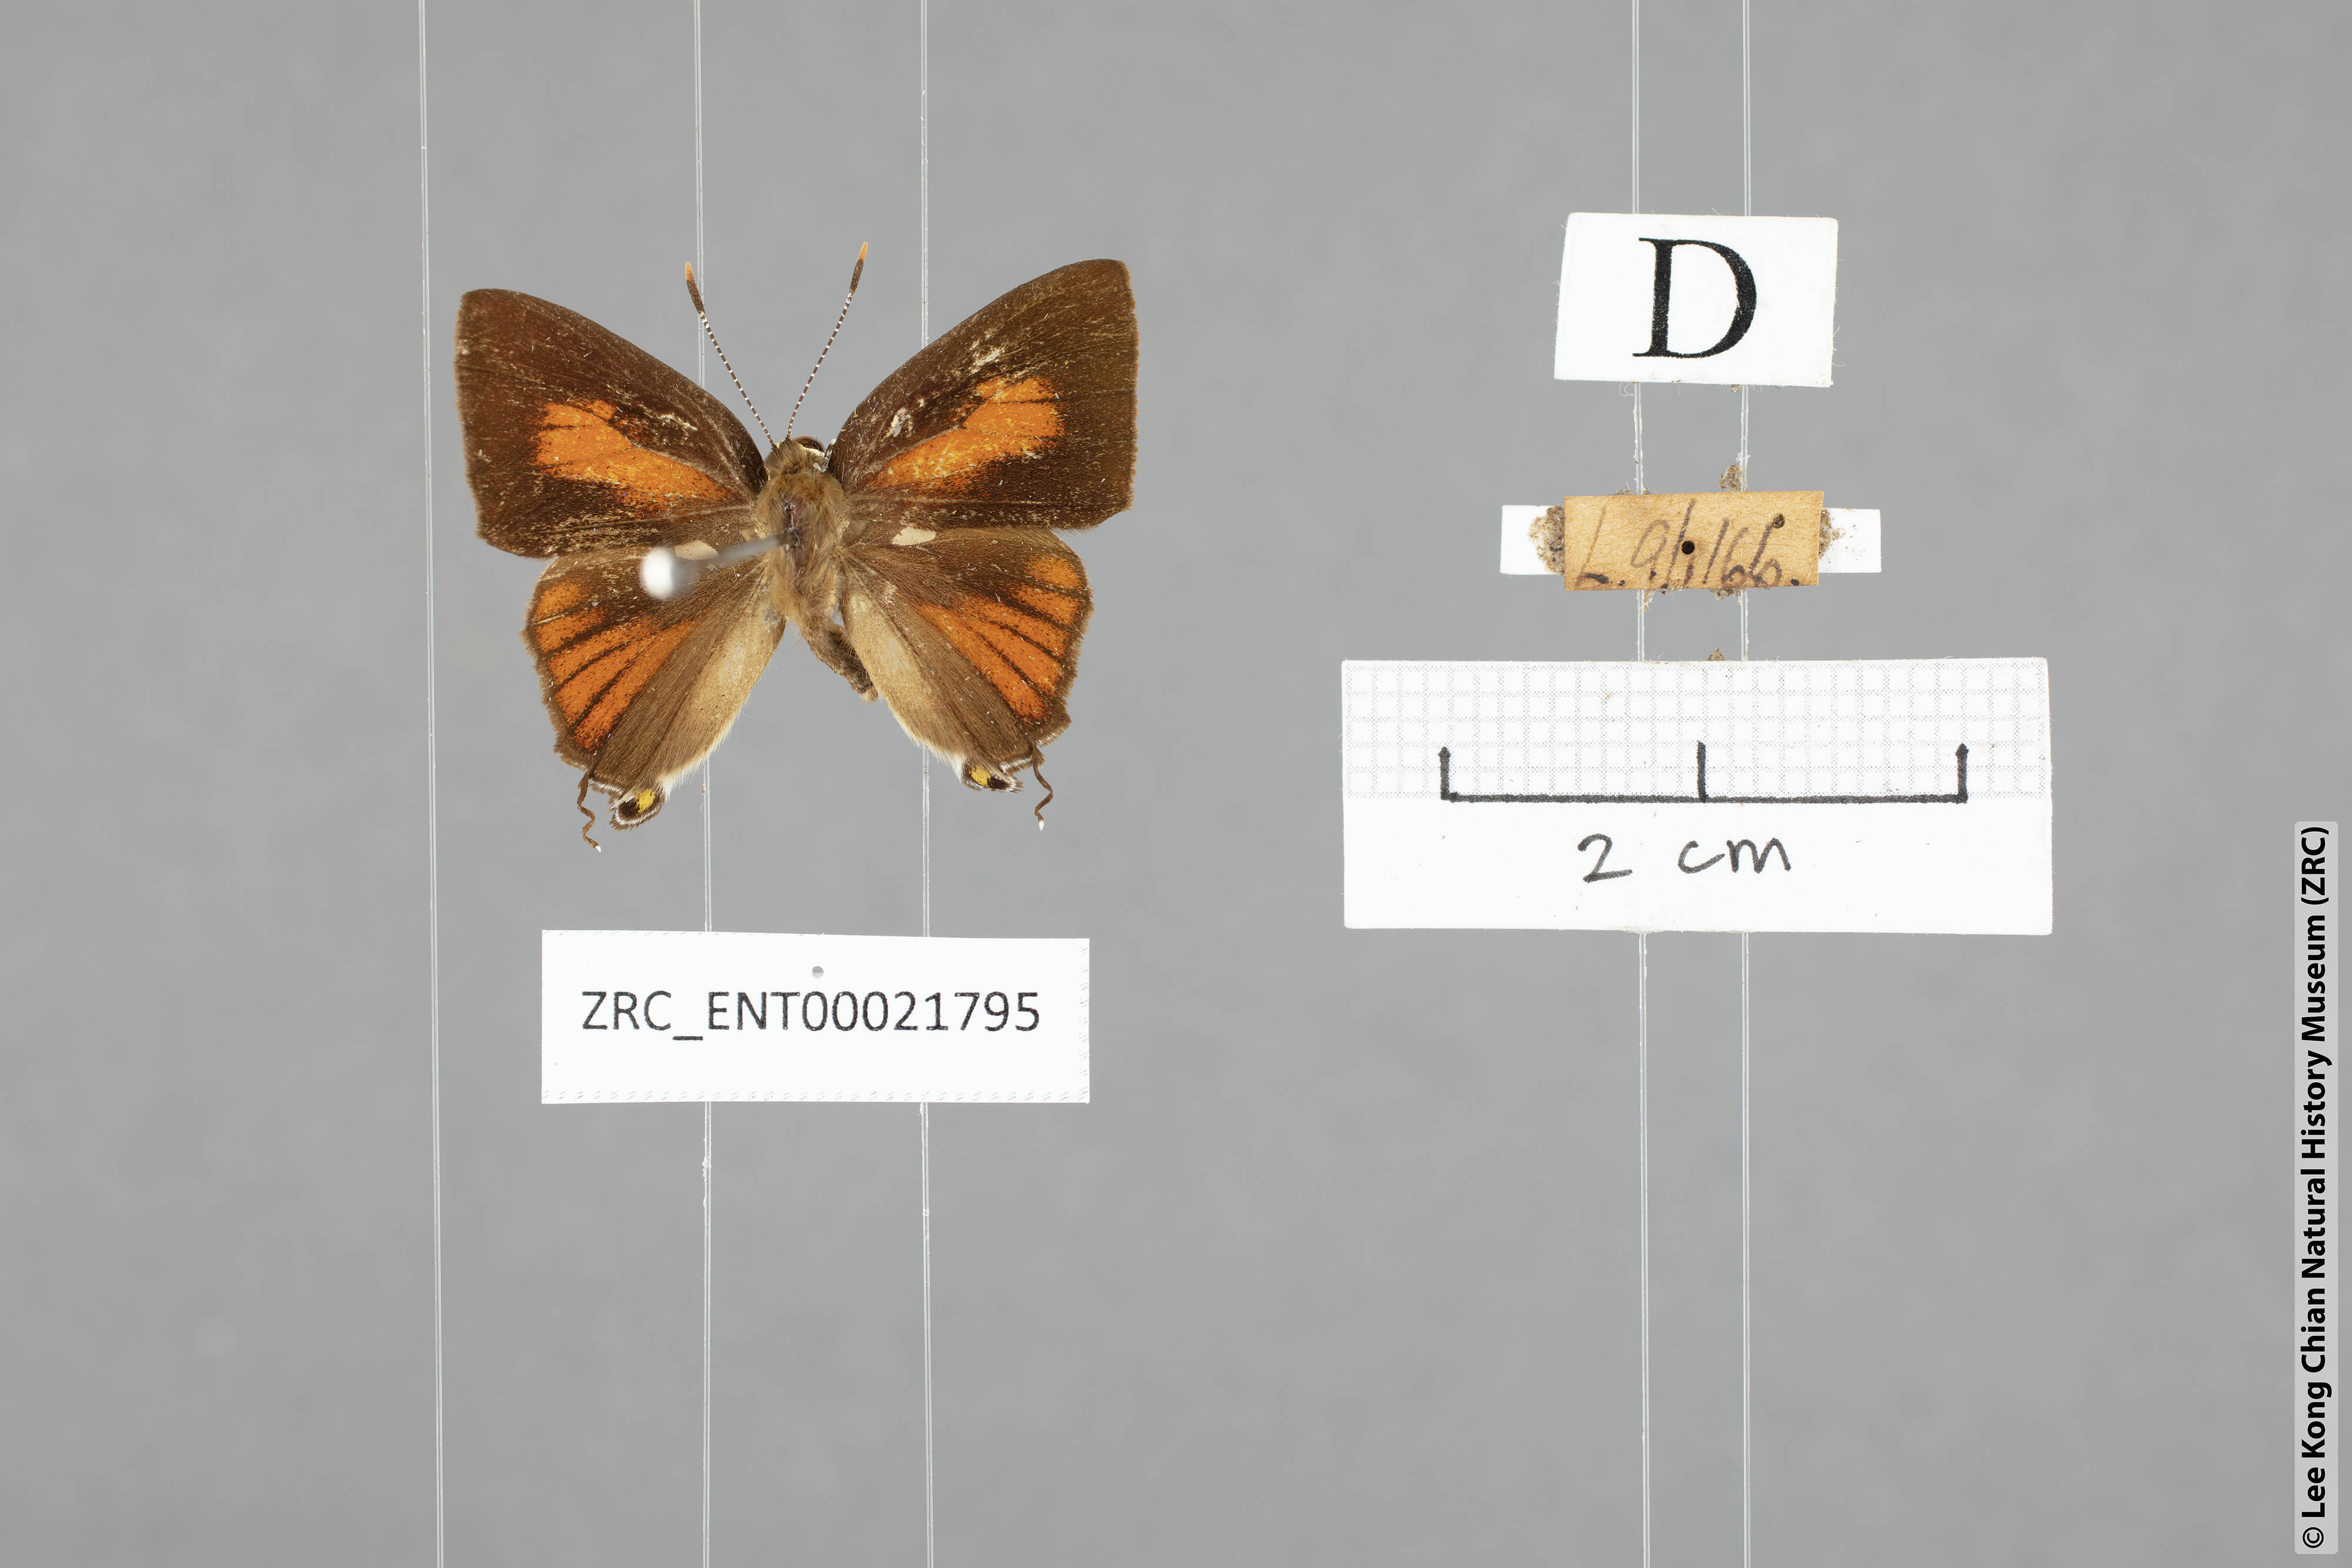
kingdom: Animalia
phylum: Arthropoda
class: Insecta
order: Lepidoptera
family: Lycaenidae
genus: Rapala
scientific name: Rapala dieneces
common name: Scarlet flash
